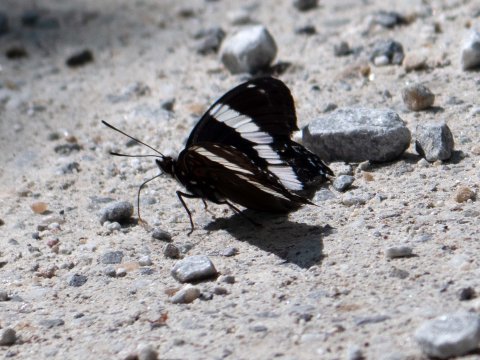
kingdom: Animalia
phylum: Arthropoda
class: Insecta
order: Lepidoptera
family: Nymphalidae
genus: Limenitis
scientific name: Limenitis arthemis
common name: Red-spotted Admiral
